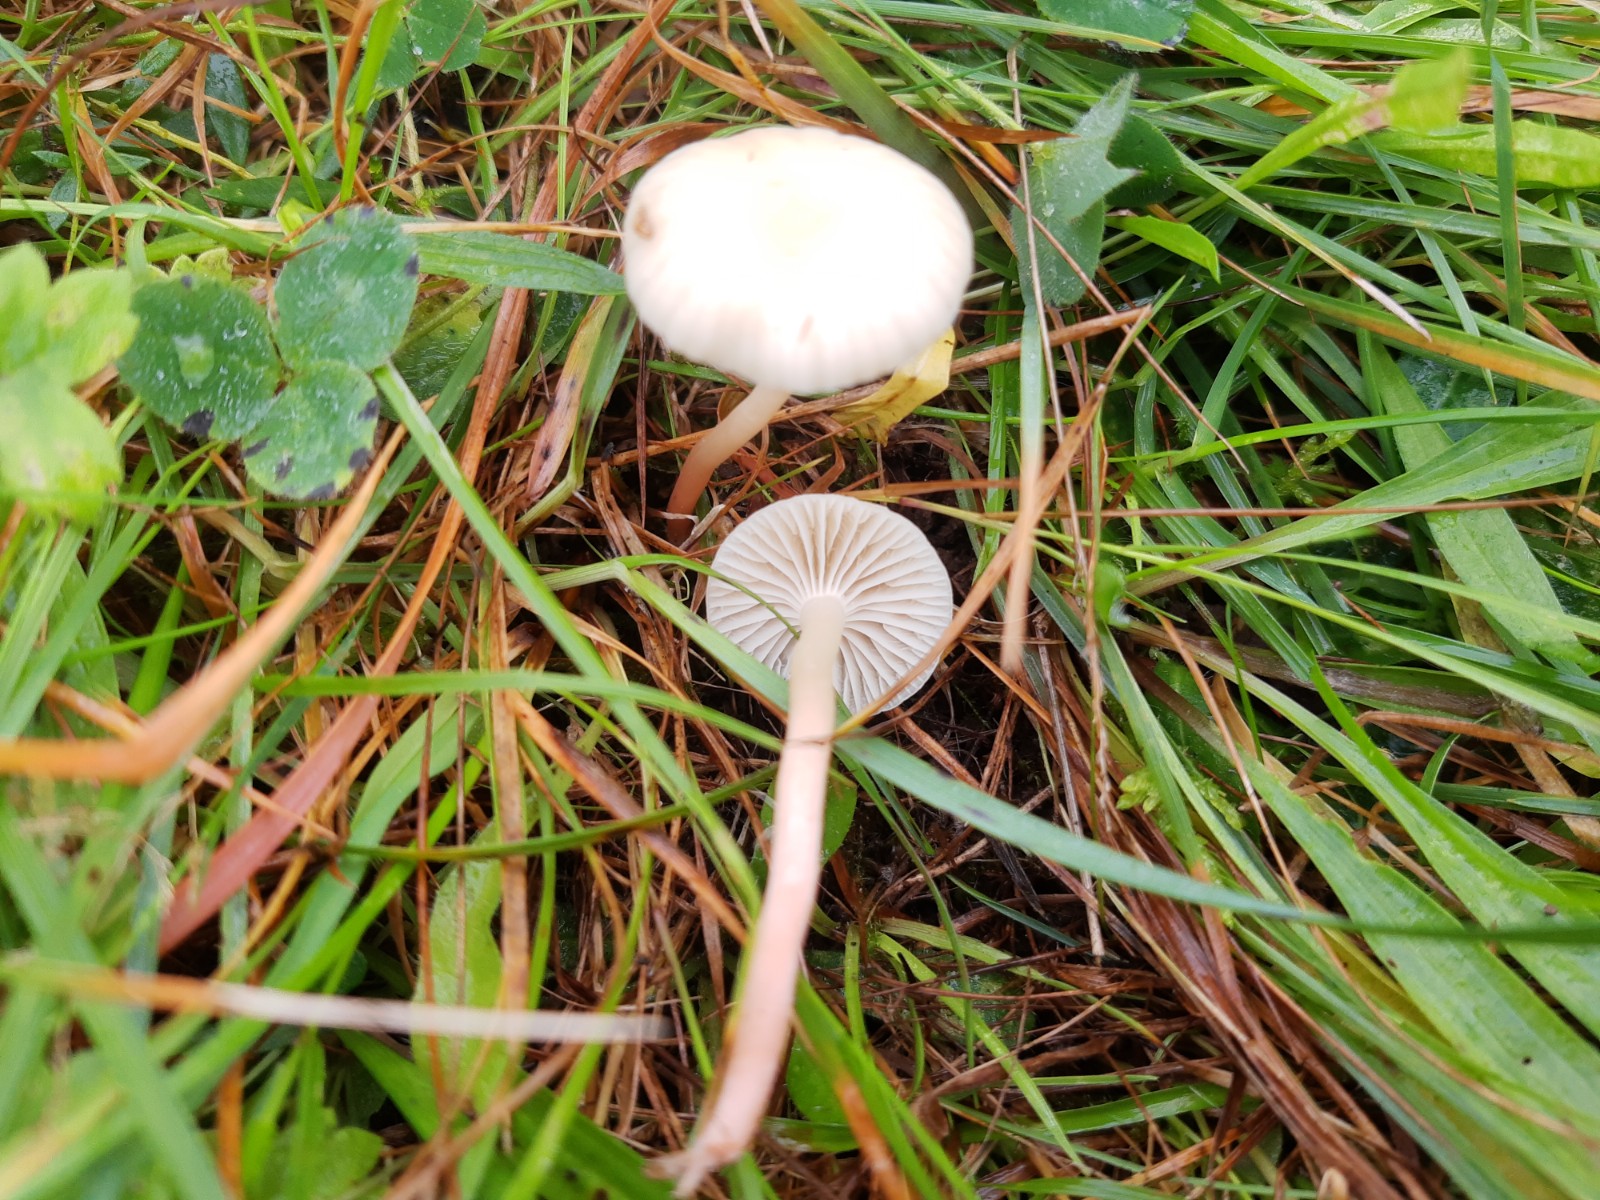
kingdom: Fungi
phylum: Basidiomycota
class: Agaricomycetes
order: Agaricales
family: Hygrophoraceae
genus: Cuphophyllus
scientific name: Cuphophyllus virgineus
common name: snehvid vokshat
